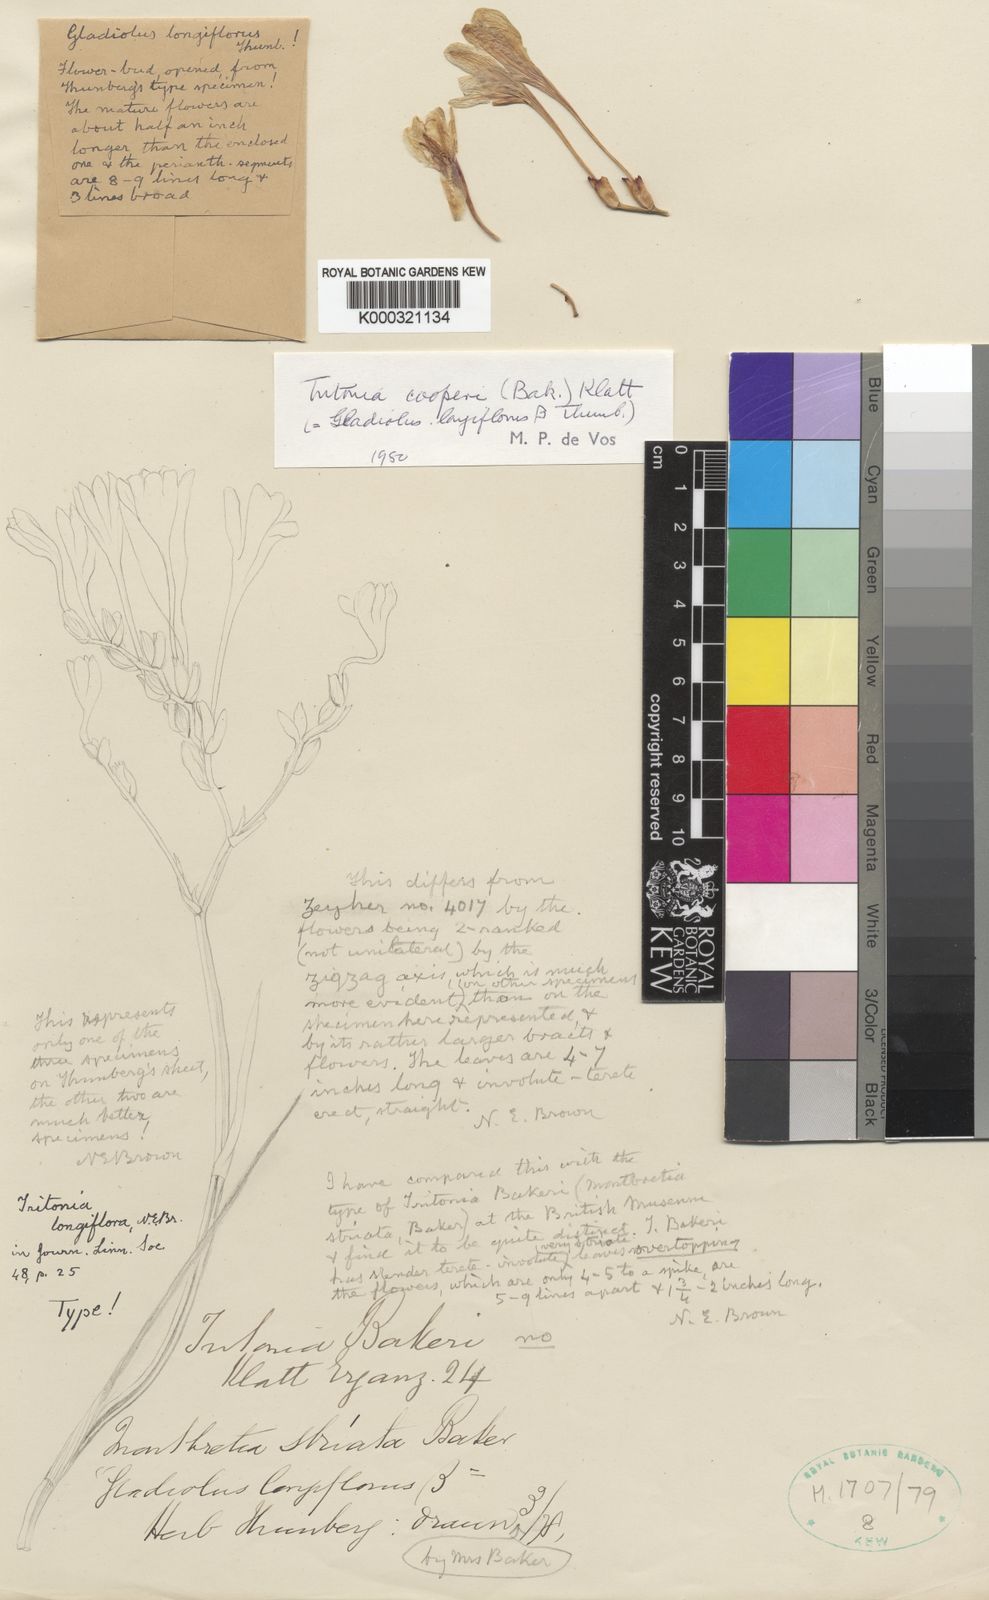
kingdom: Plantae
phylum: Tracheophyta
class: Liliopsida
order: Asparagales
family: Iridaceae
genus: Tritonia
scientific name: Tritonia cooperi
